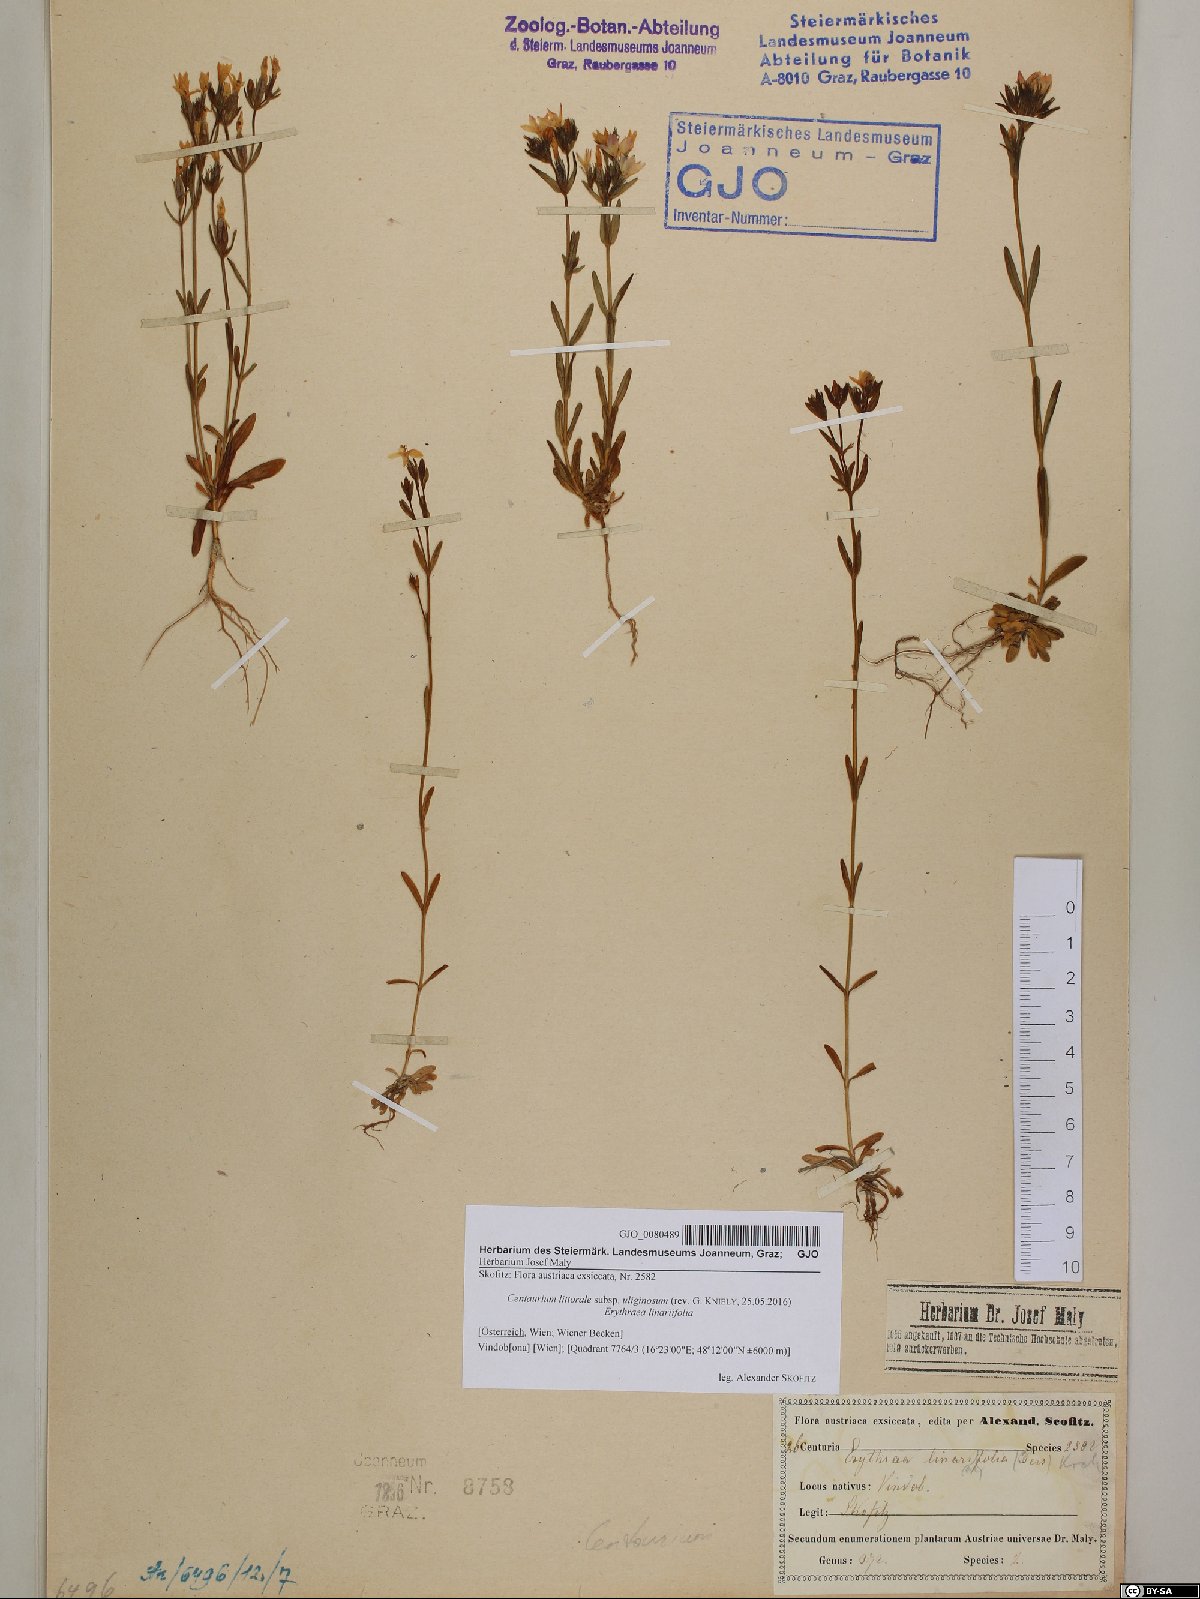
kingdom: Plantae
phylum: Tracheophyta
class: Magnoliopsida
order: Gentianales
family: Gentianaceae
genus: Centaurium
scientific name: Centaurium littorale
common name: Seaside centaury
